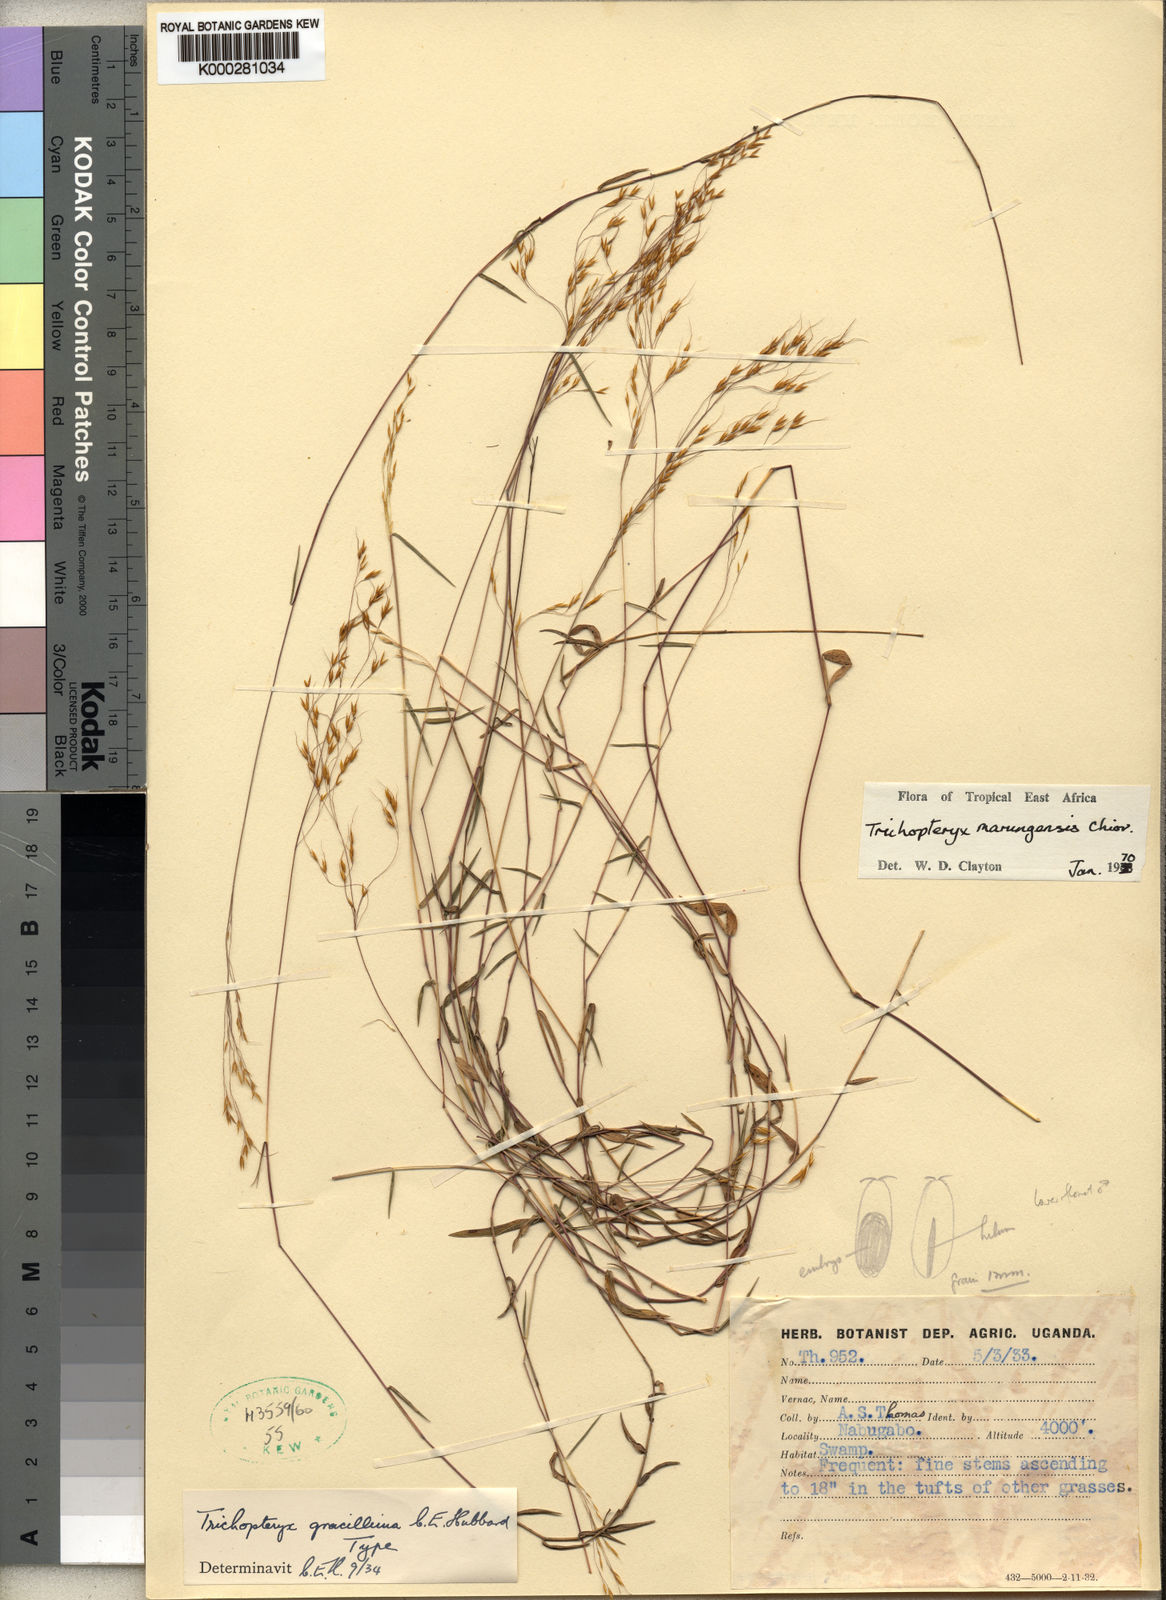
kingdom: Plantae
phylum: Tracheophyta
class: Liliopsida
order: Poales
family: Poaceae
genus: Trichopteryx
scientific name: Trichopteryx marungensis
